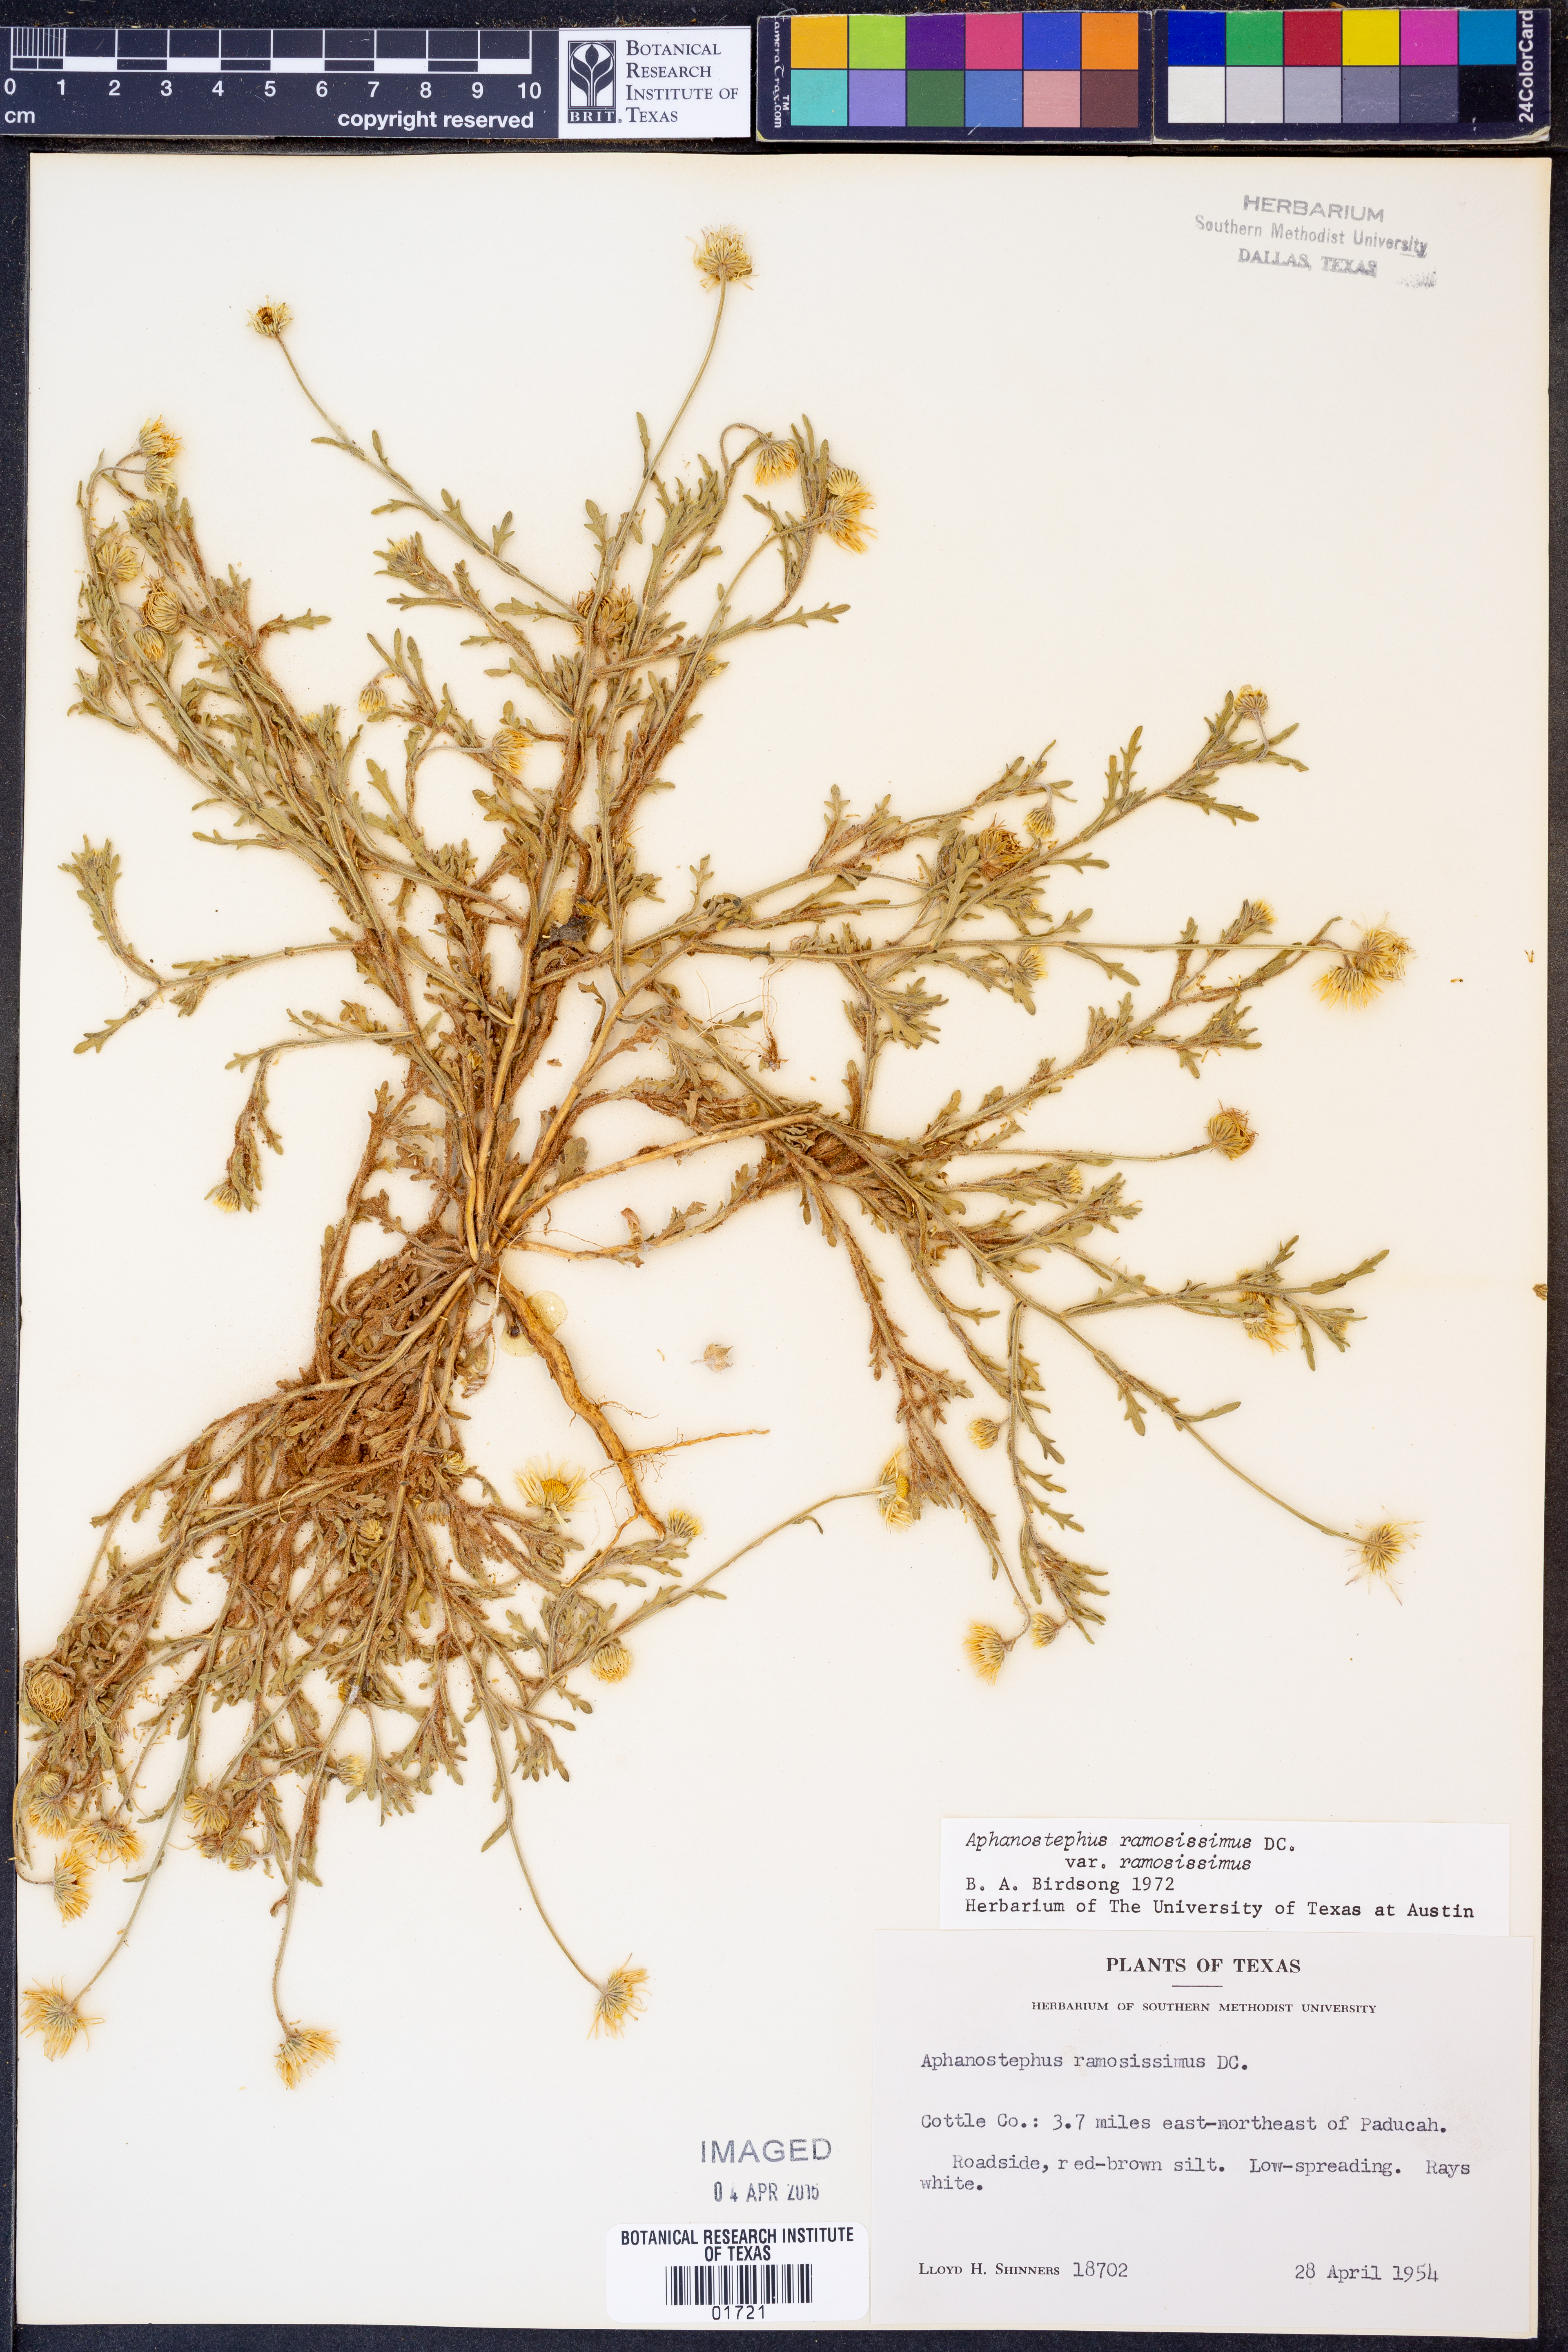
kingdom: Plantae
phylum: Tracheophyta
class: Magnoliopsida
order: Asterales
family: Asteraceae
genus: Aphanostephus
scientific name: Aphanostephus ramosissimus
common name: Plains lazy daisy
